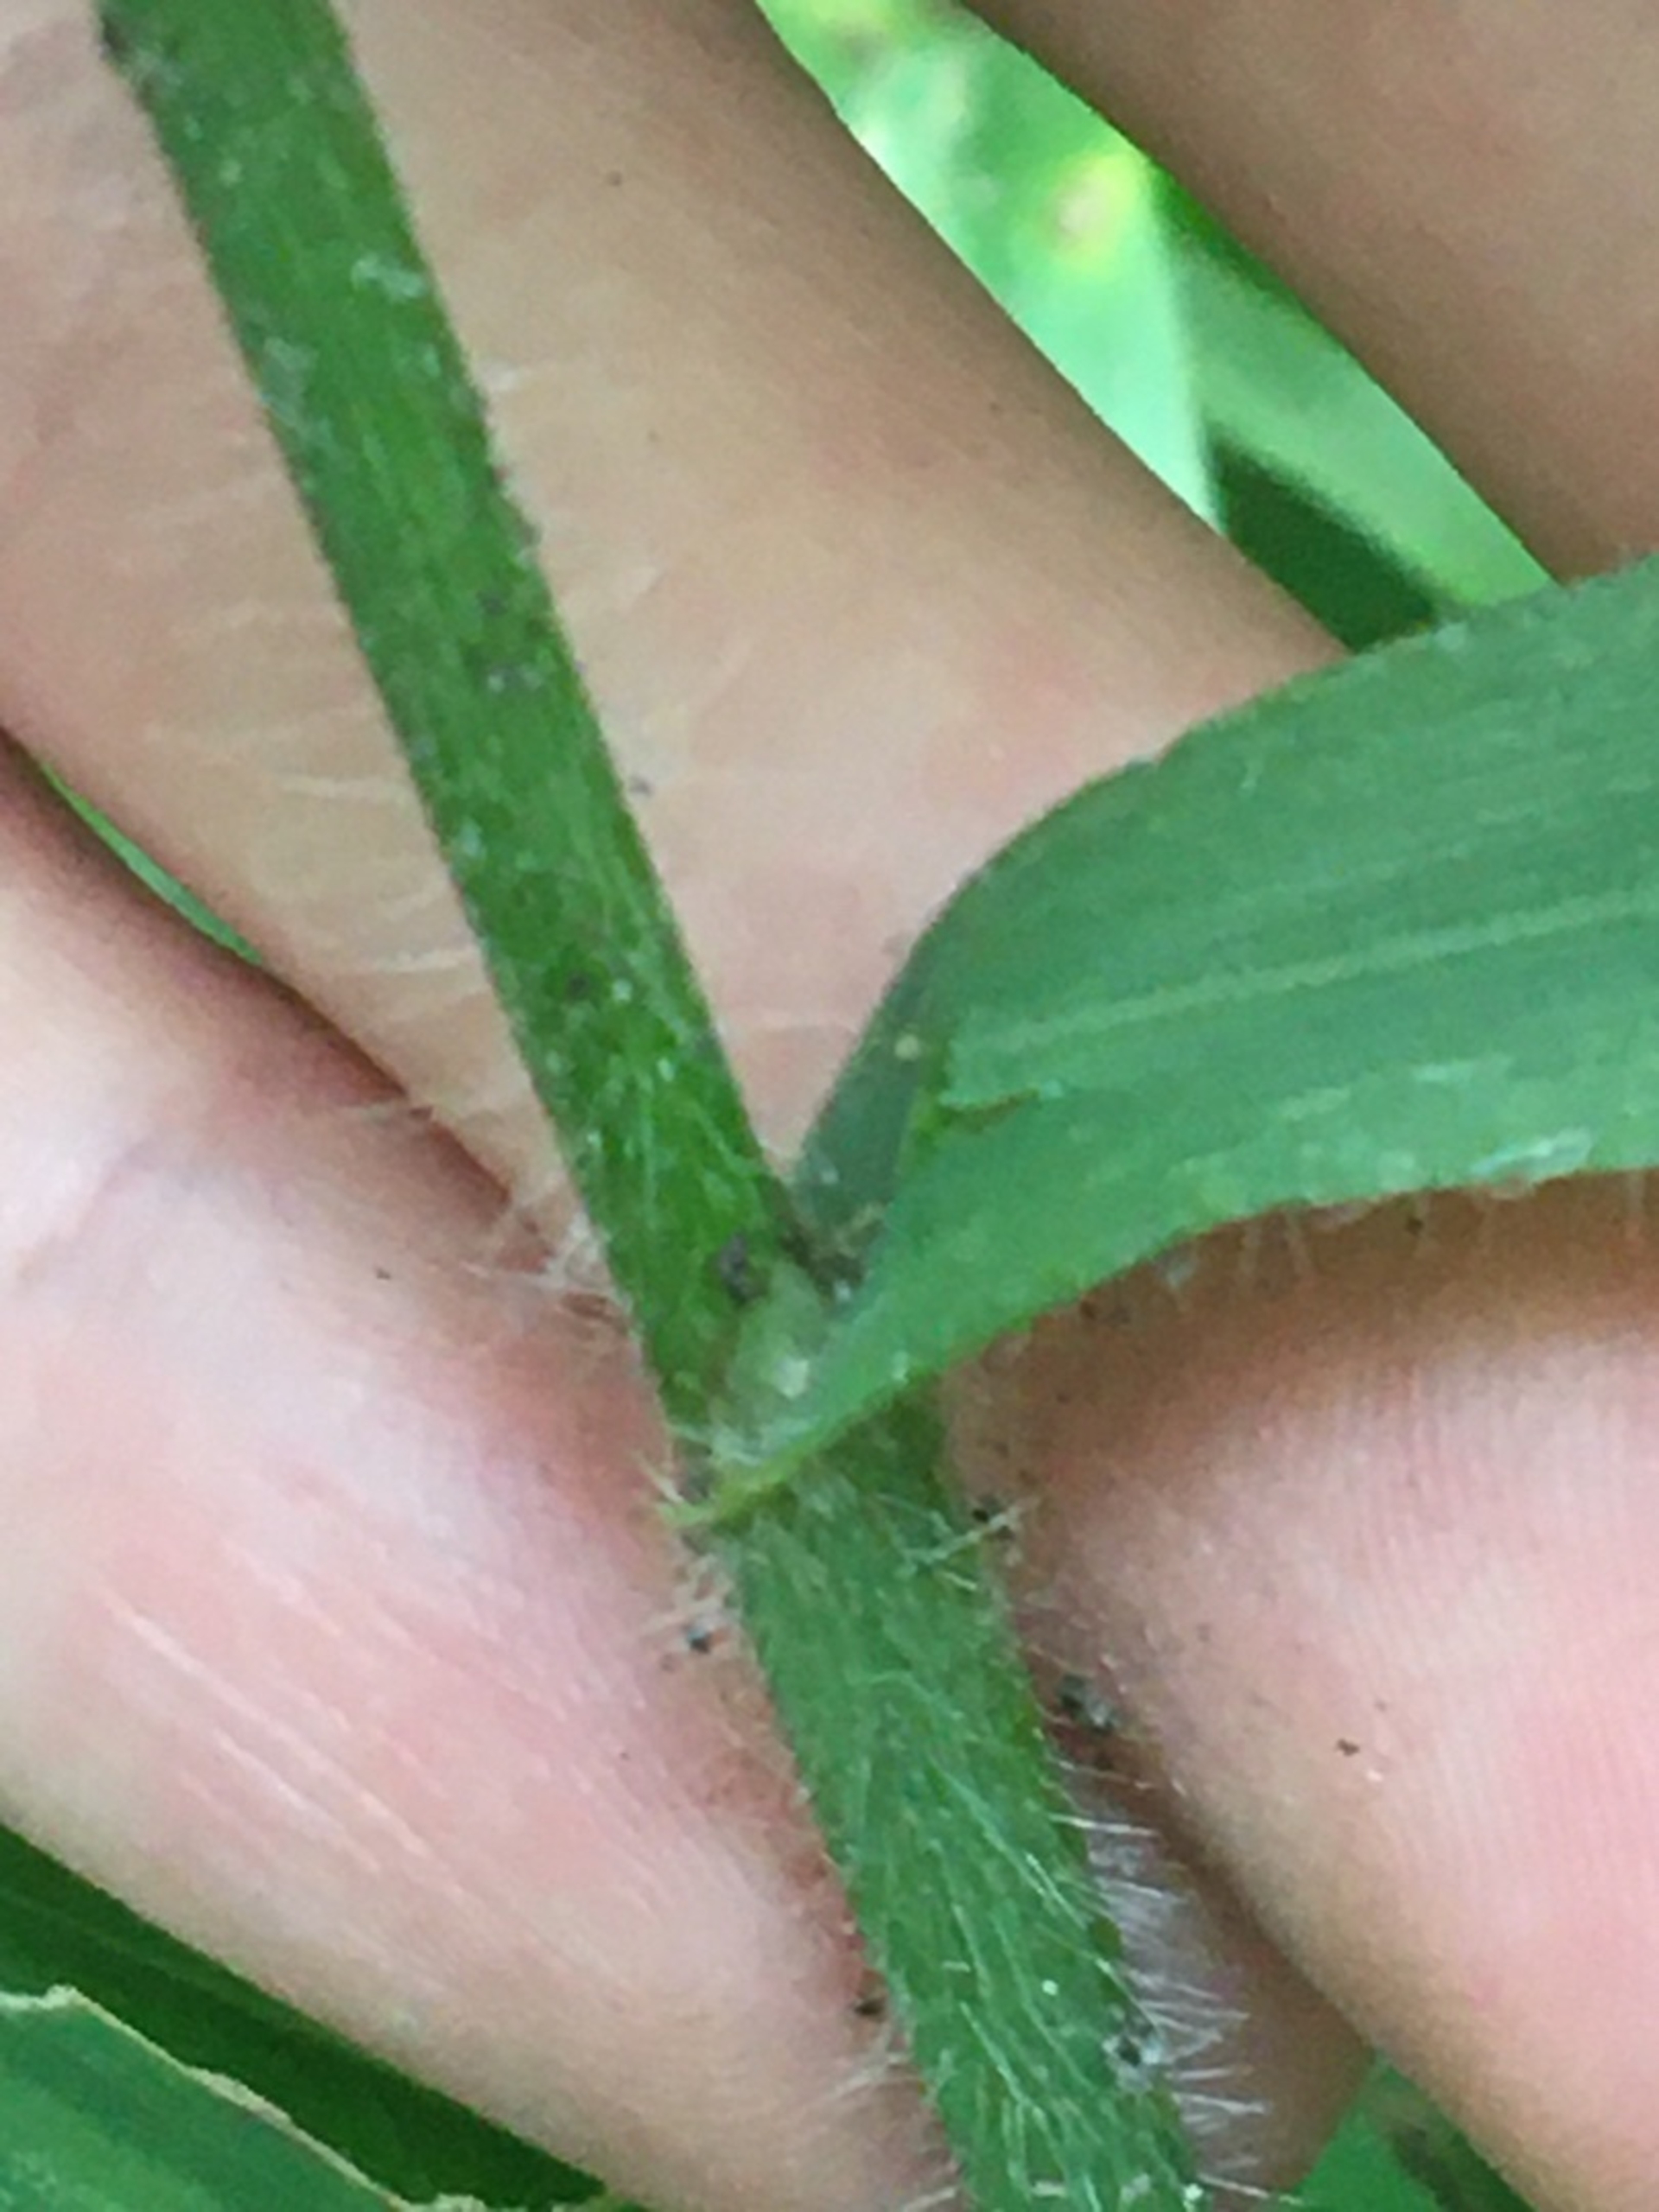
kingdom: Plantae
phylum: Tracheophyta
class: Liliopsida
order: Poales
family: Poaceae
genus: Bromus
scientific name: Bromus ramosus
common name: Sildig skov-hejre
